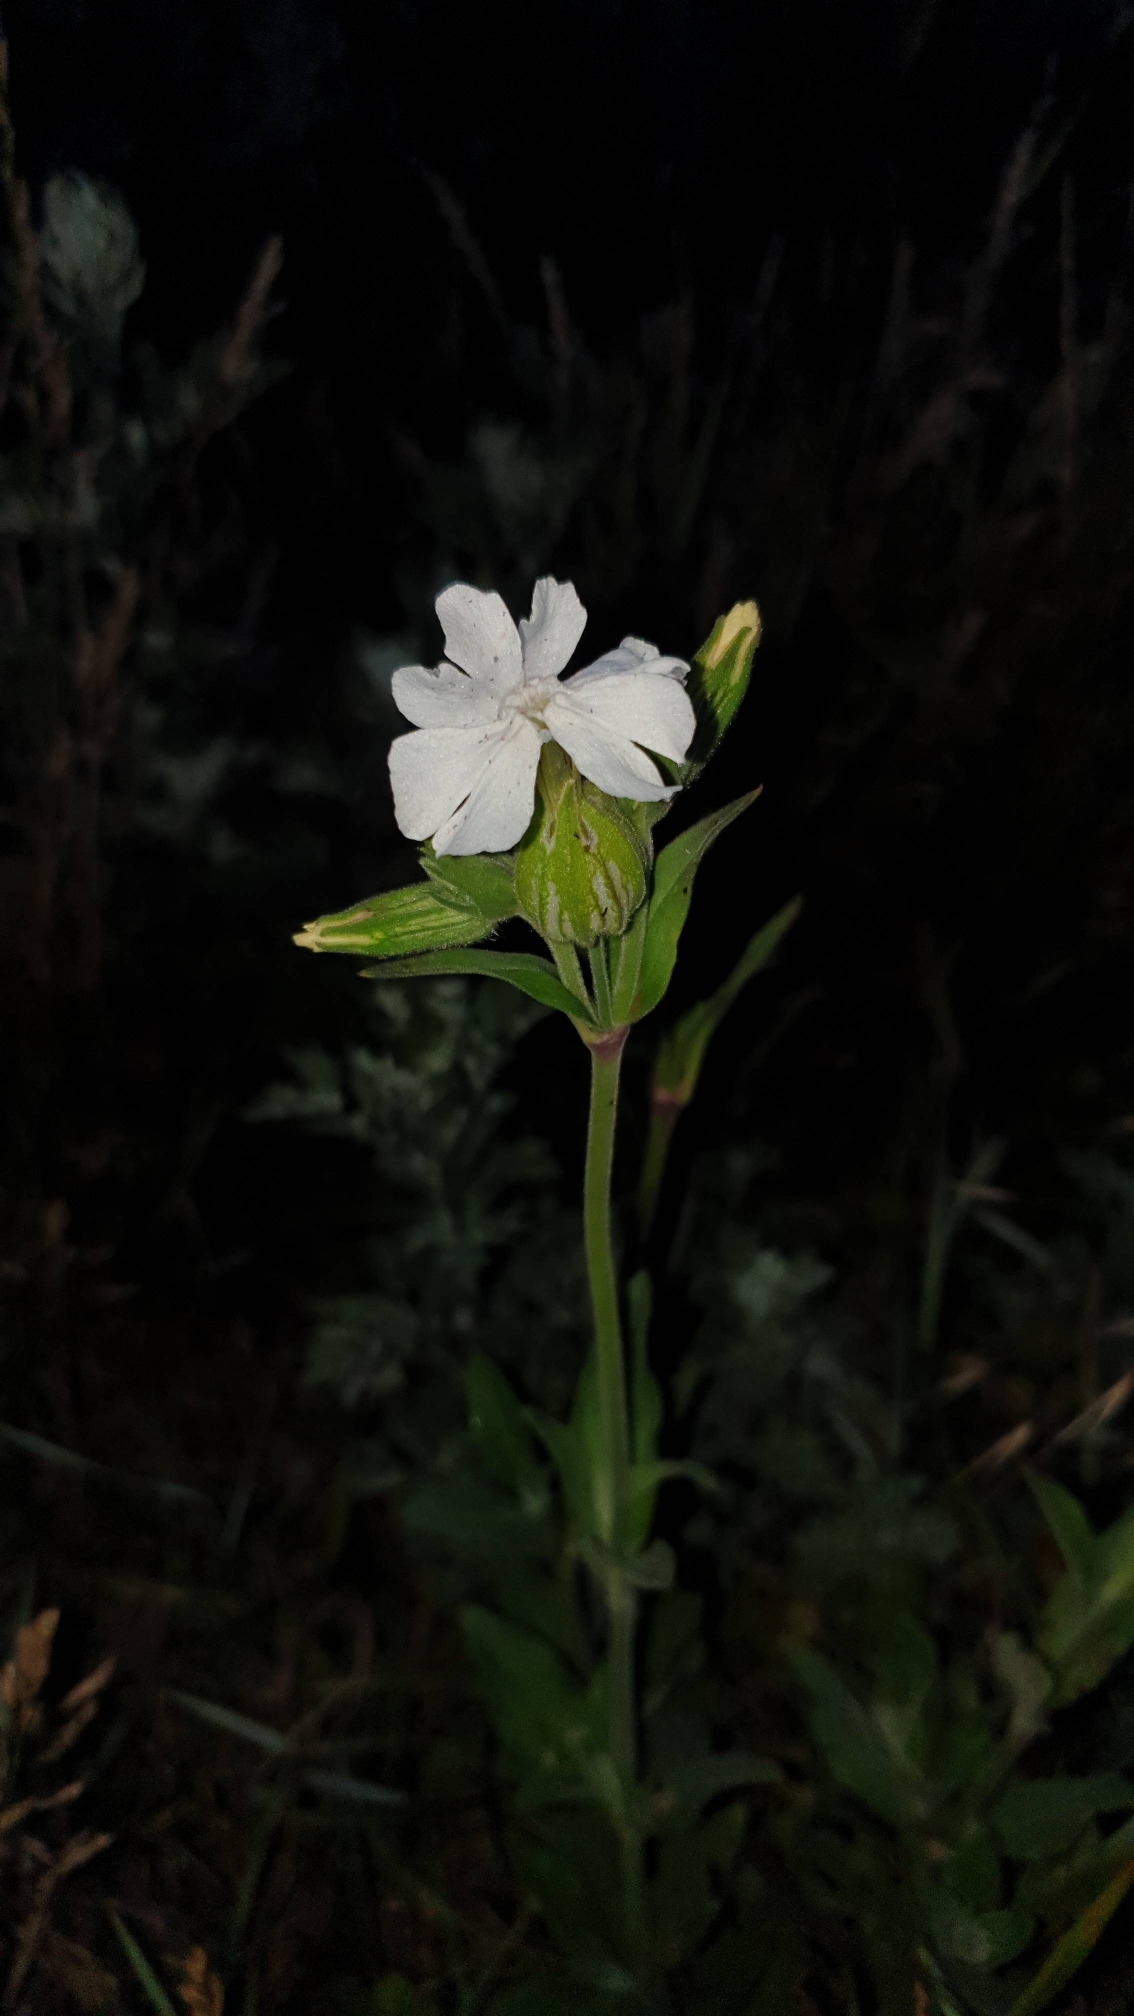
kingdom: Plantae
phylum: Tracheophyta
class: Magnoliopsida
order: Caryophyllales
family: Caryophyllaceae
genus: Silene
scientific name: Silene latifolia
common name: Aftenpragtstjerne
